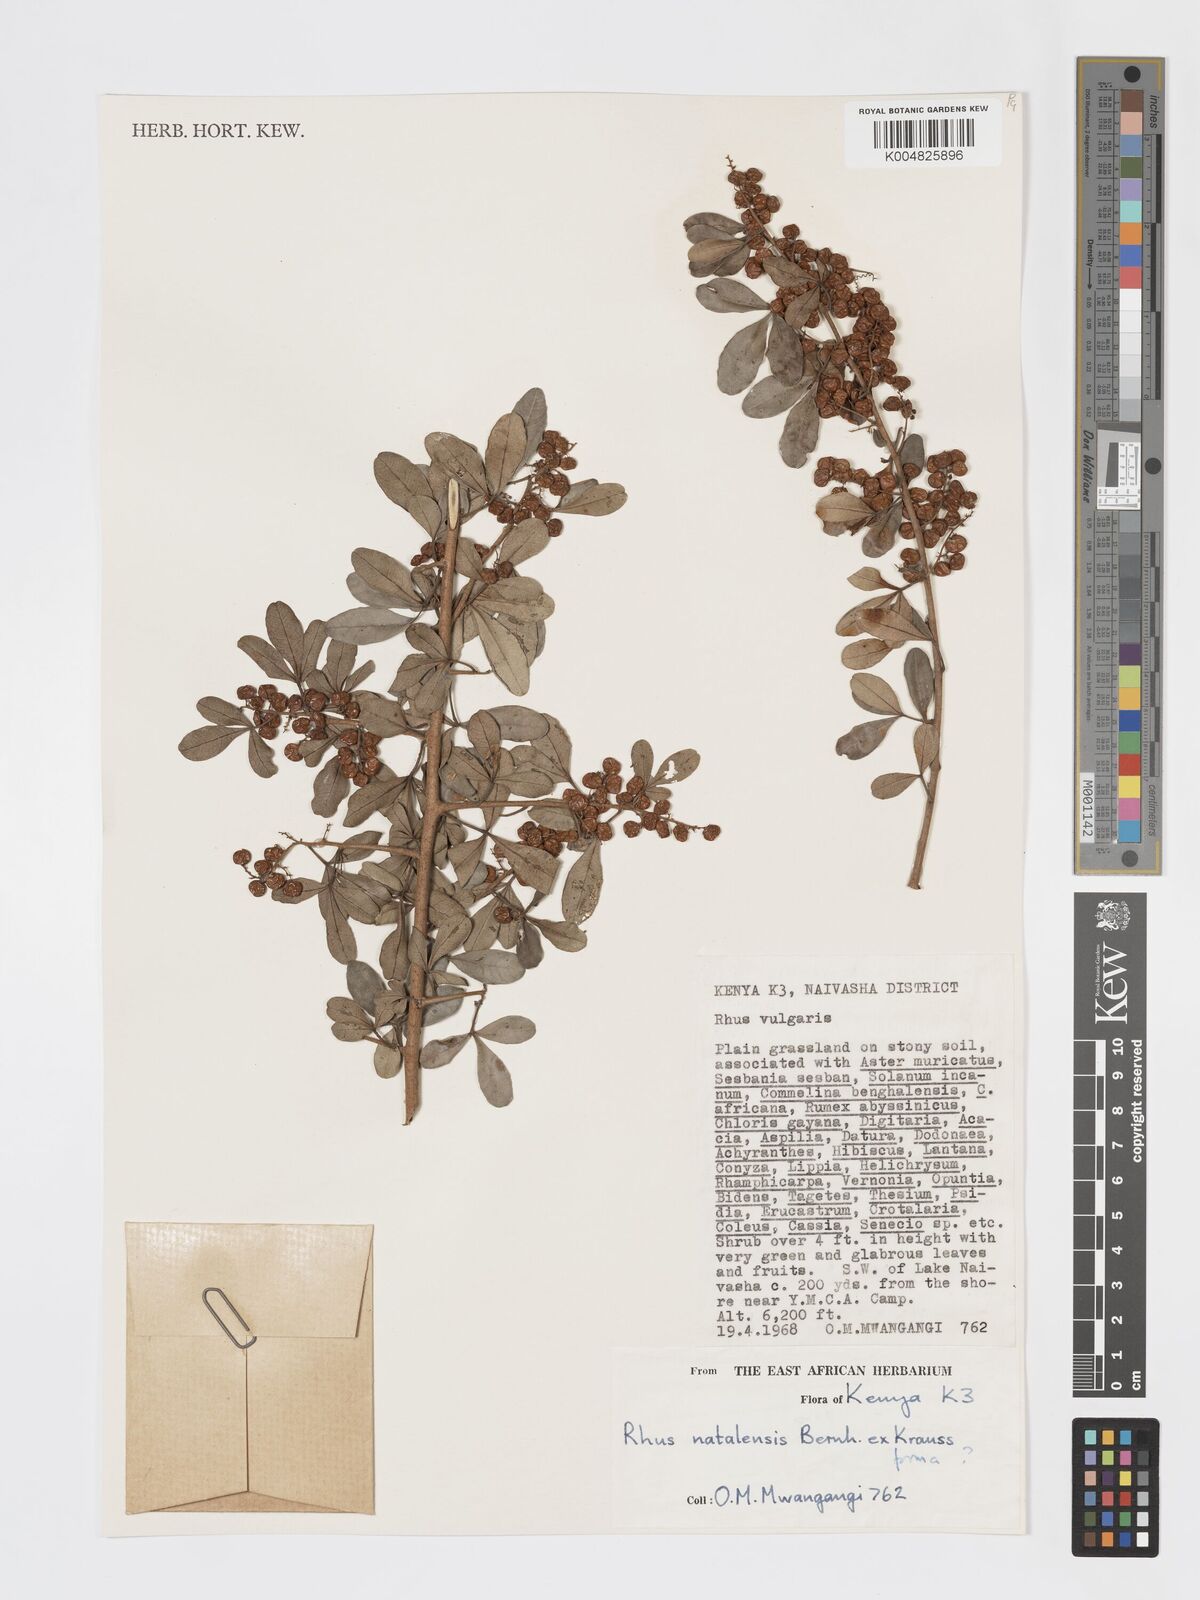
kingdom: Plantae
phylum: Tracheophyta
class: Magnoliopsida
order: Sapindales
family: Anacardiaceae
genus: Searsia
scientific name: Searsia natalensis
